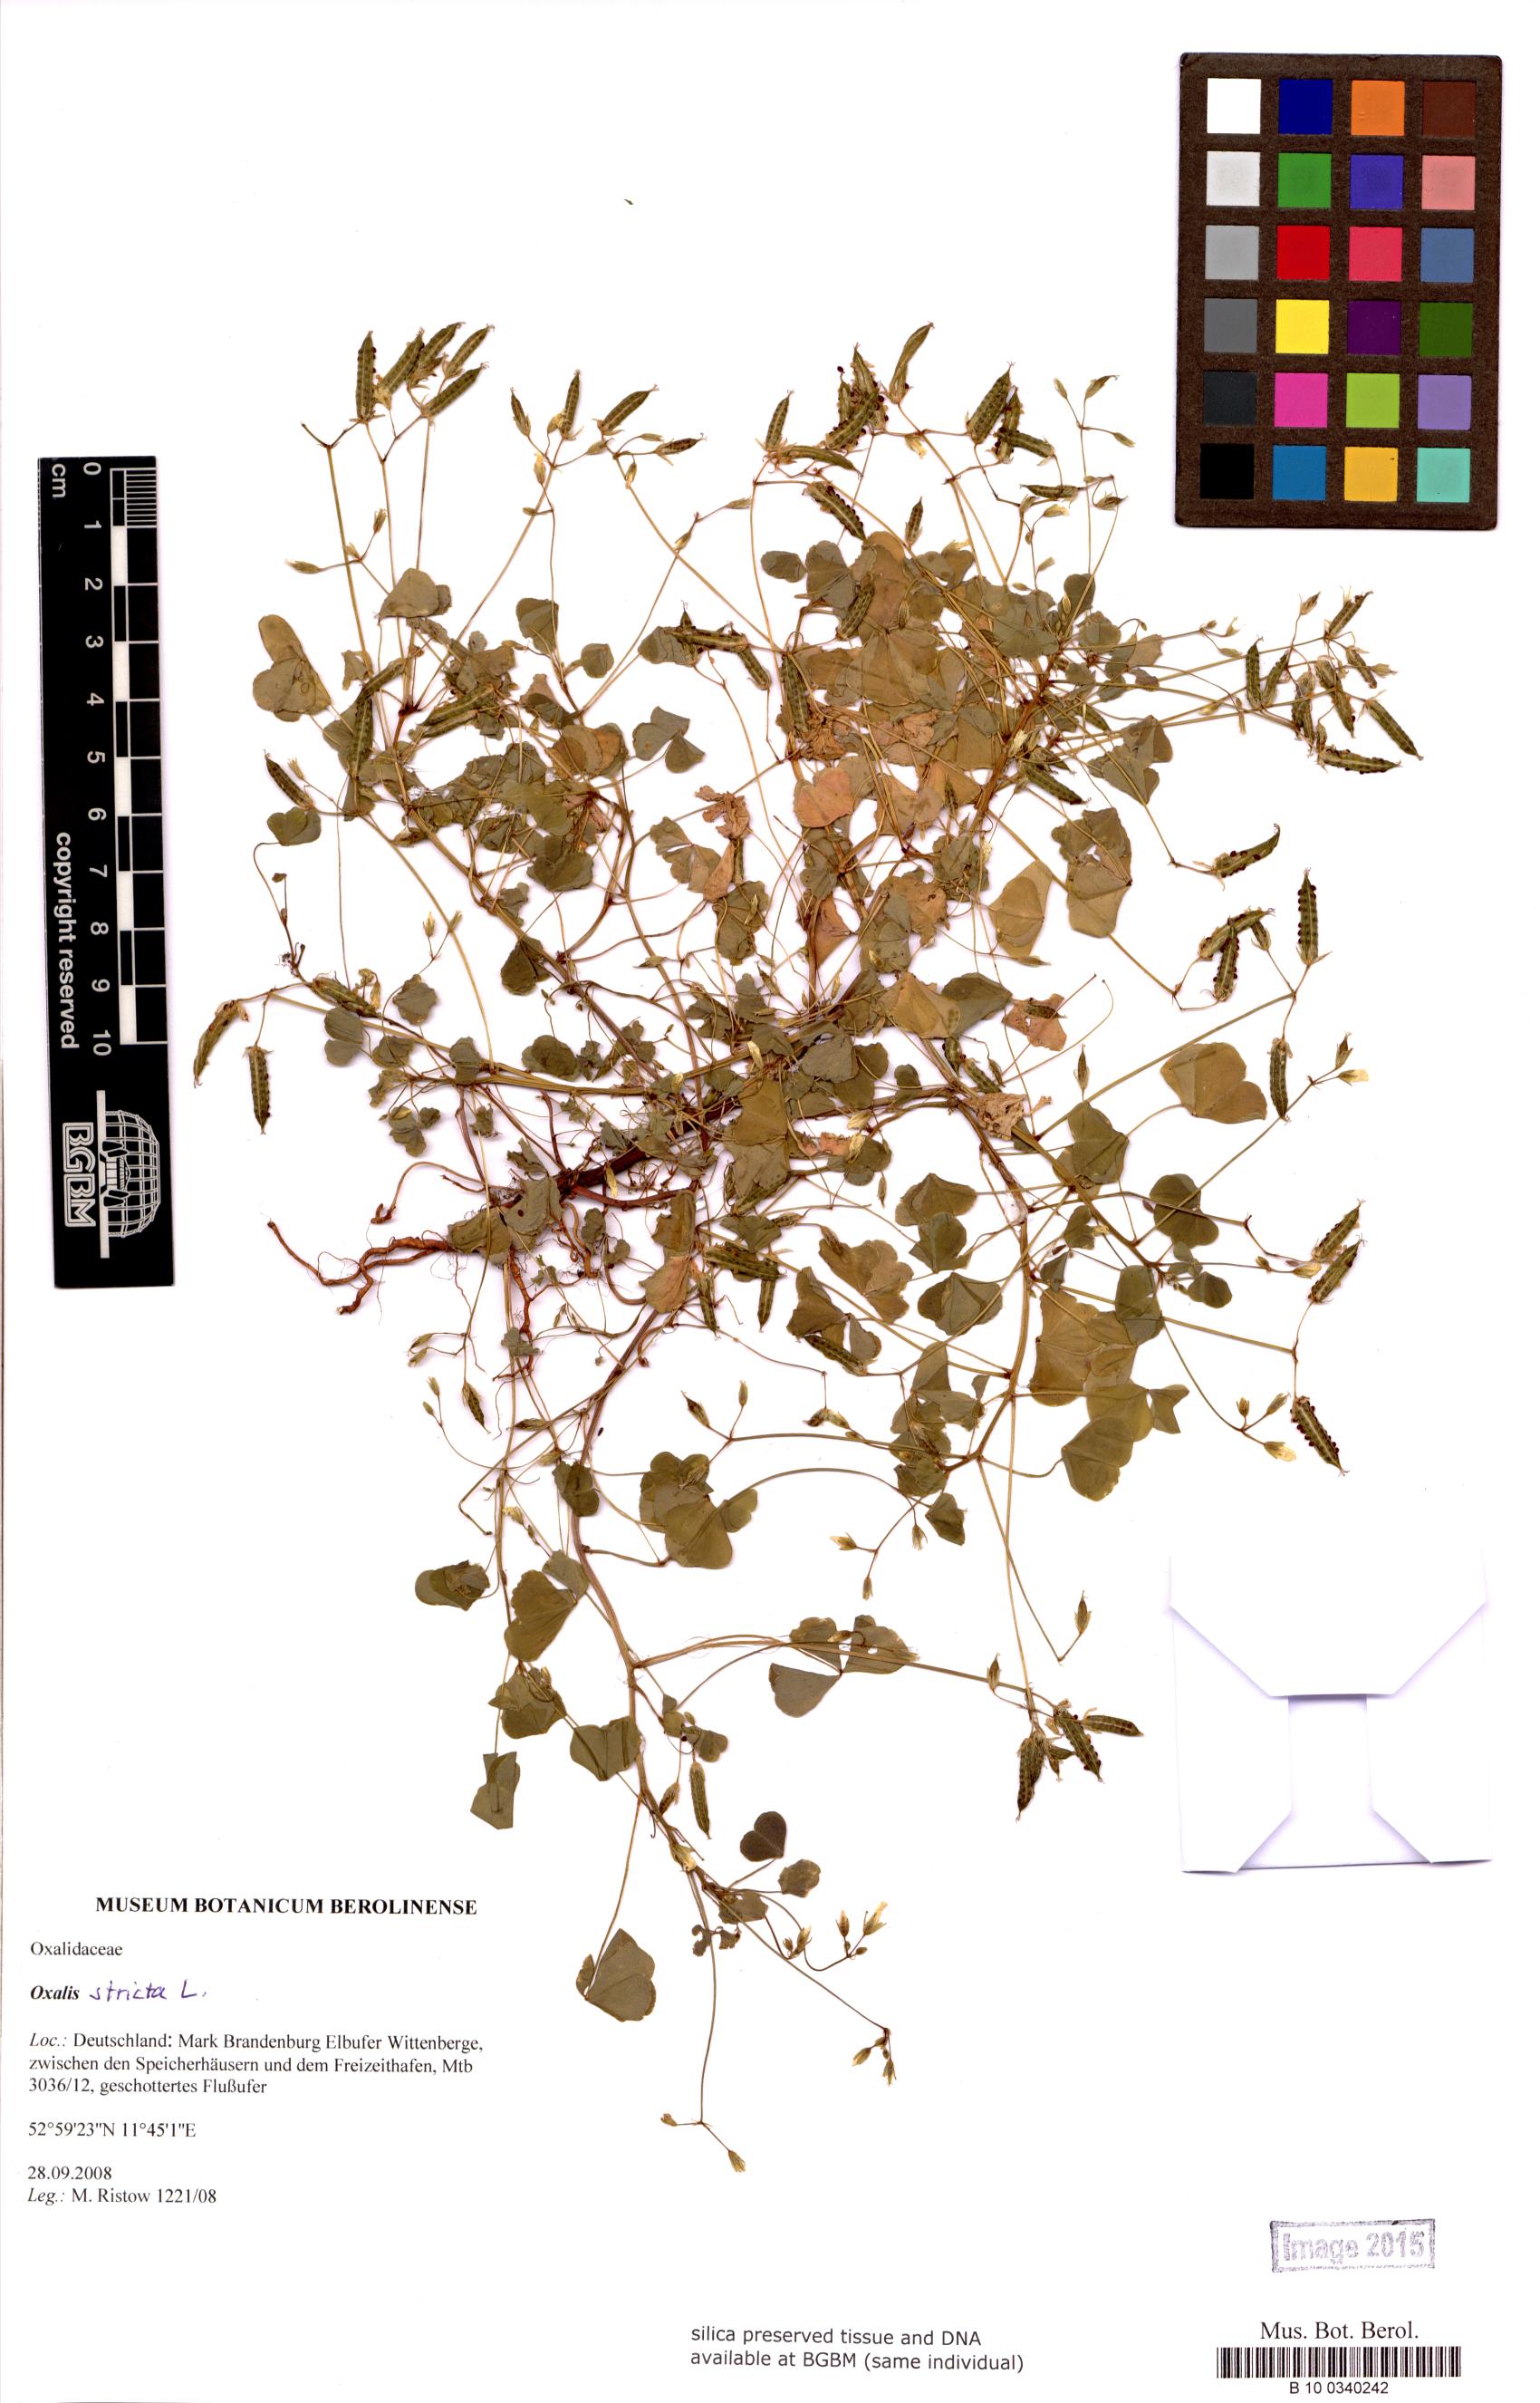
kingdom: Plantae
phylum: Tracheophyta
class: Magnoliopsida
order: Oxalidales
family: Oxalidaceae
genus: Oxalis
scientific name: Oxalis stricta
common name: Upright yellow-sorrel
